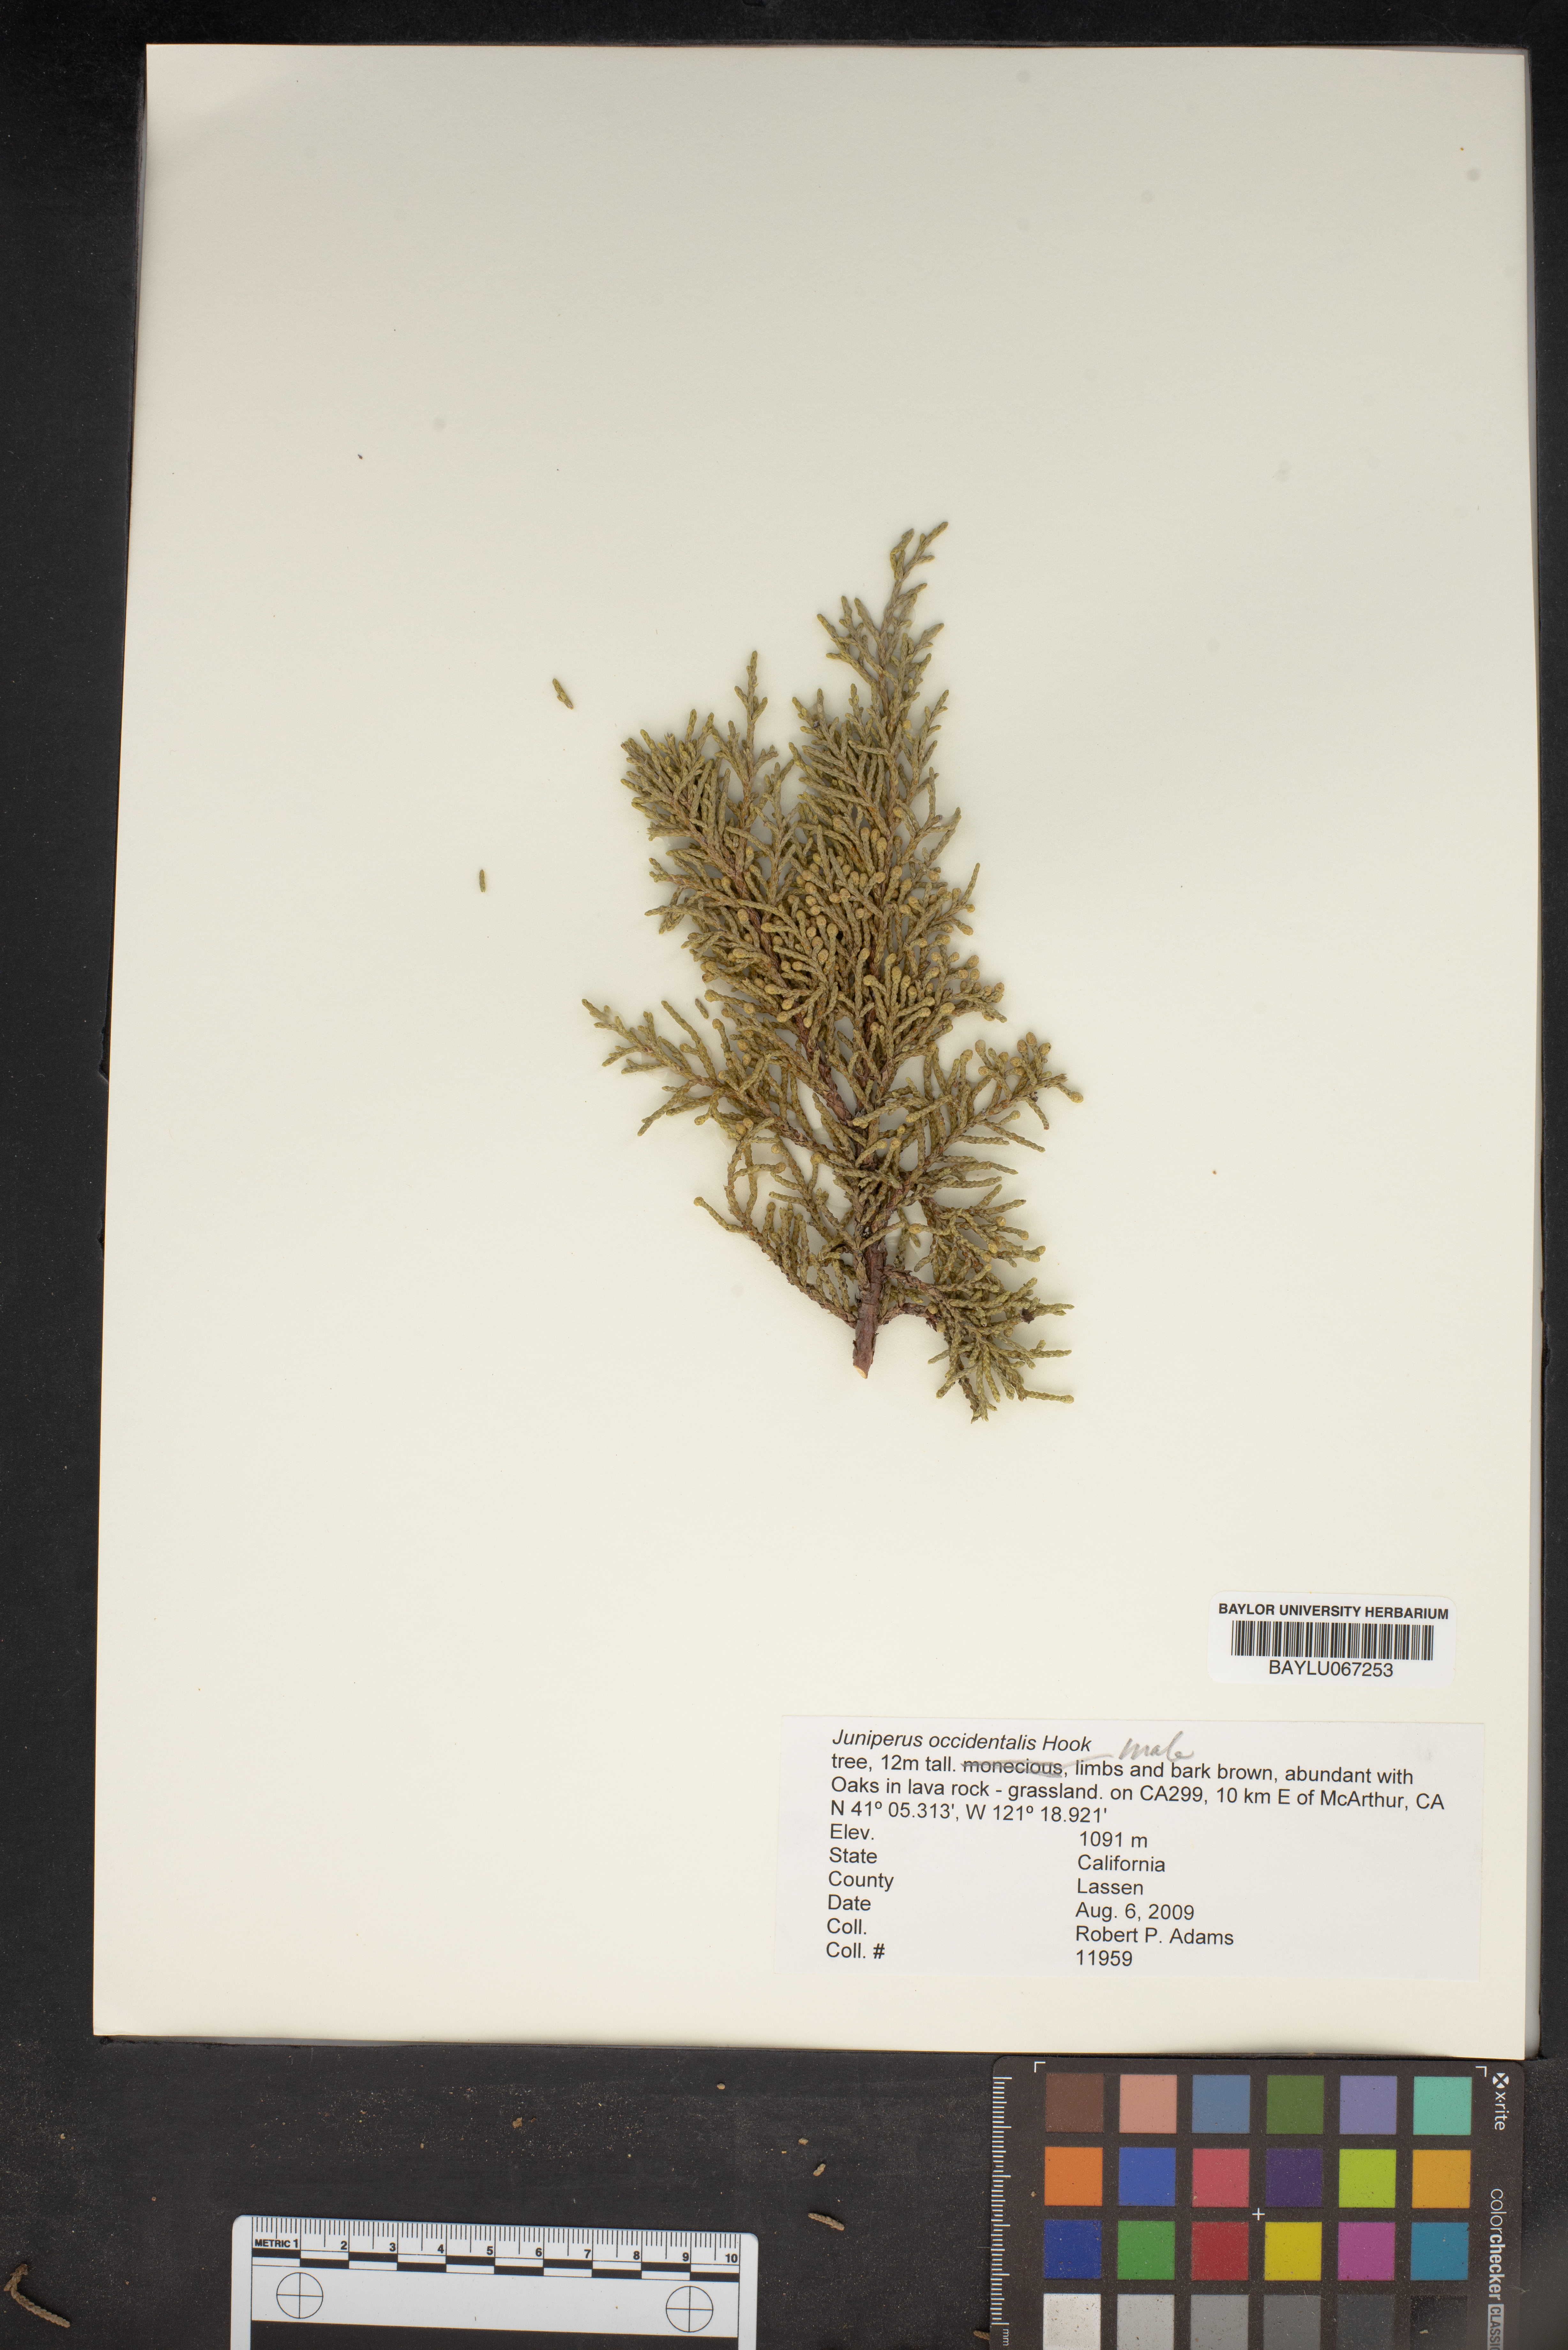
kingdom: Plantae
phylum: Tracheophyta
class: Pinopsida
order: Pinales
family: Cupressaceae
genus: Juniperus
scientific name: Juniperus occidentalis
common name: Western juniper
